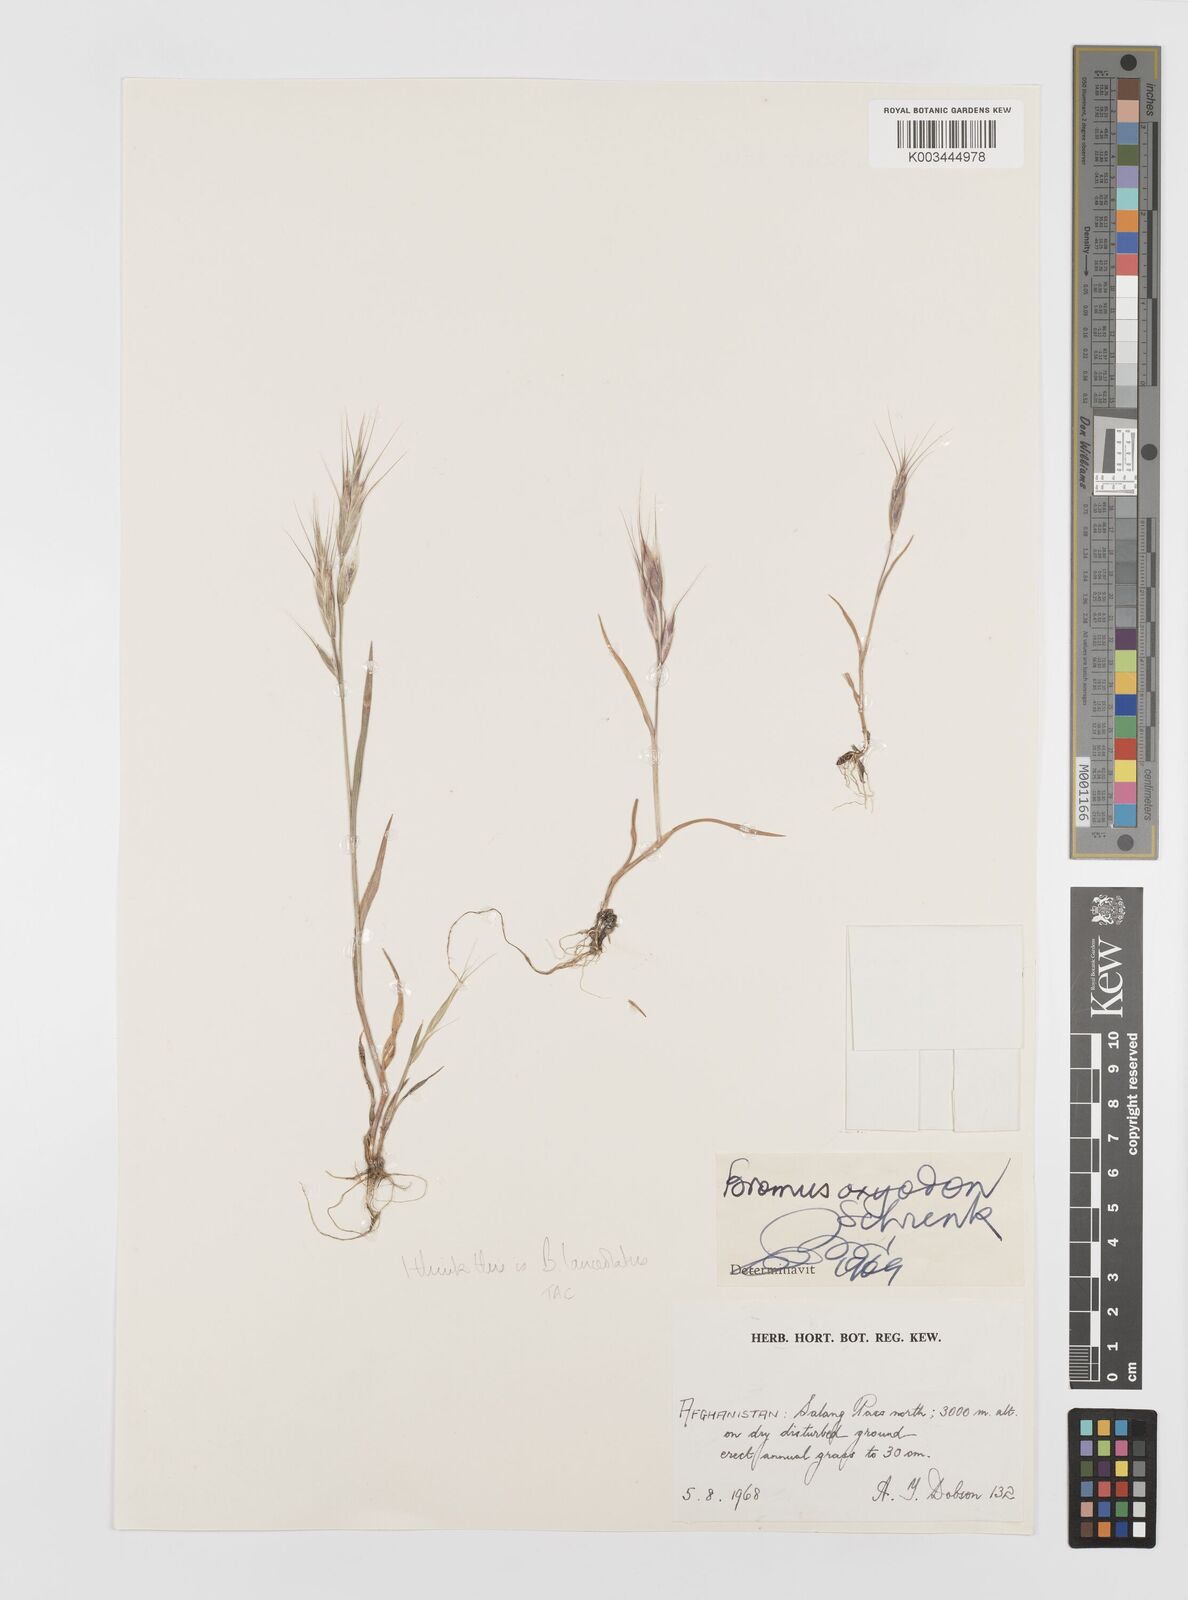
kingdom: Plantae
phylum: Tracheophyta
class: Liliopsida
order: Poales
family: Poaceae
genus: Bromus
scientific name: Bromus lanceolatus
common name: Mediterranean brome
